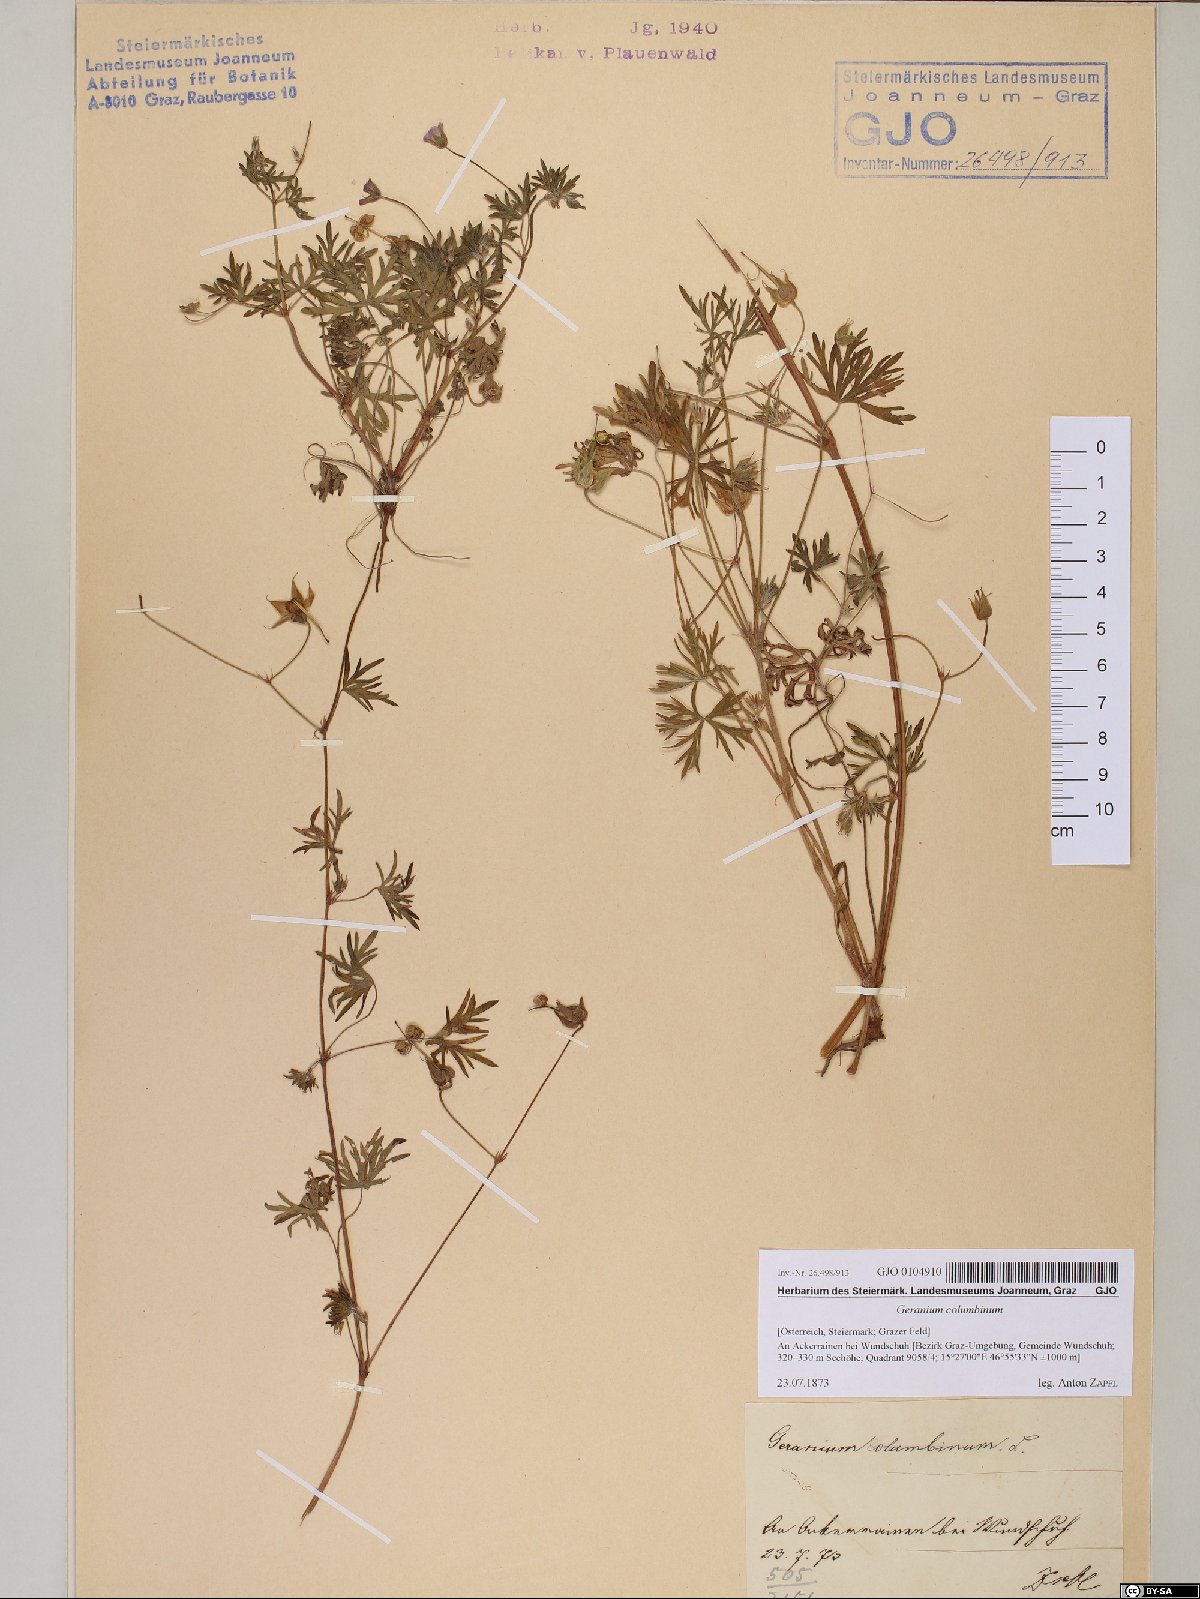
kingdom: Plantae
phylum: Tracheophyta
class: Magnoliopsida
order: Geraniales
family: Geraniaceae
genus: Geranium
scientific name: Geranium columbinum
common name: Long-stalked crane's-bill
